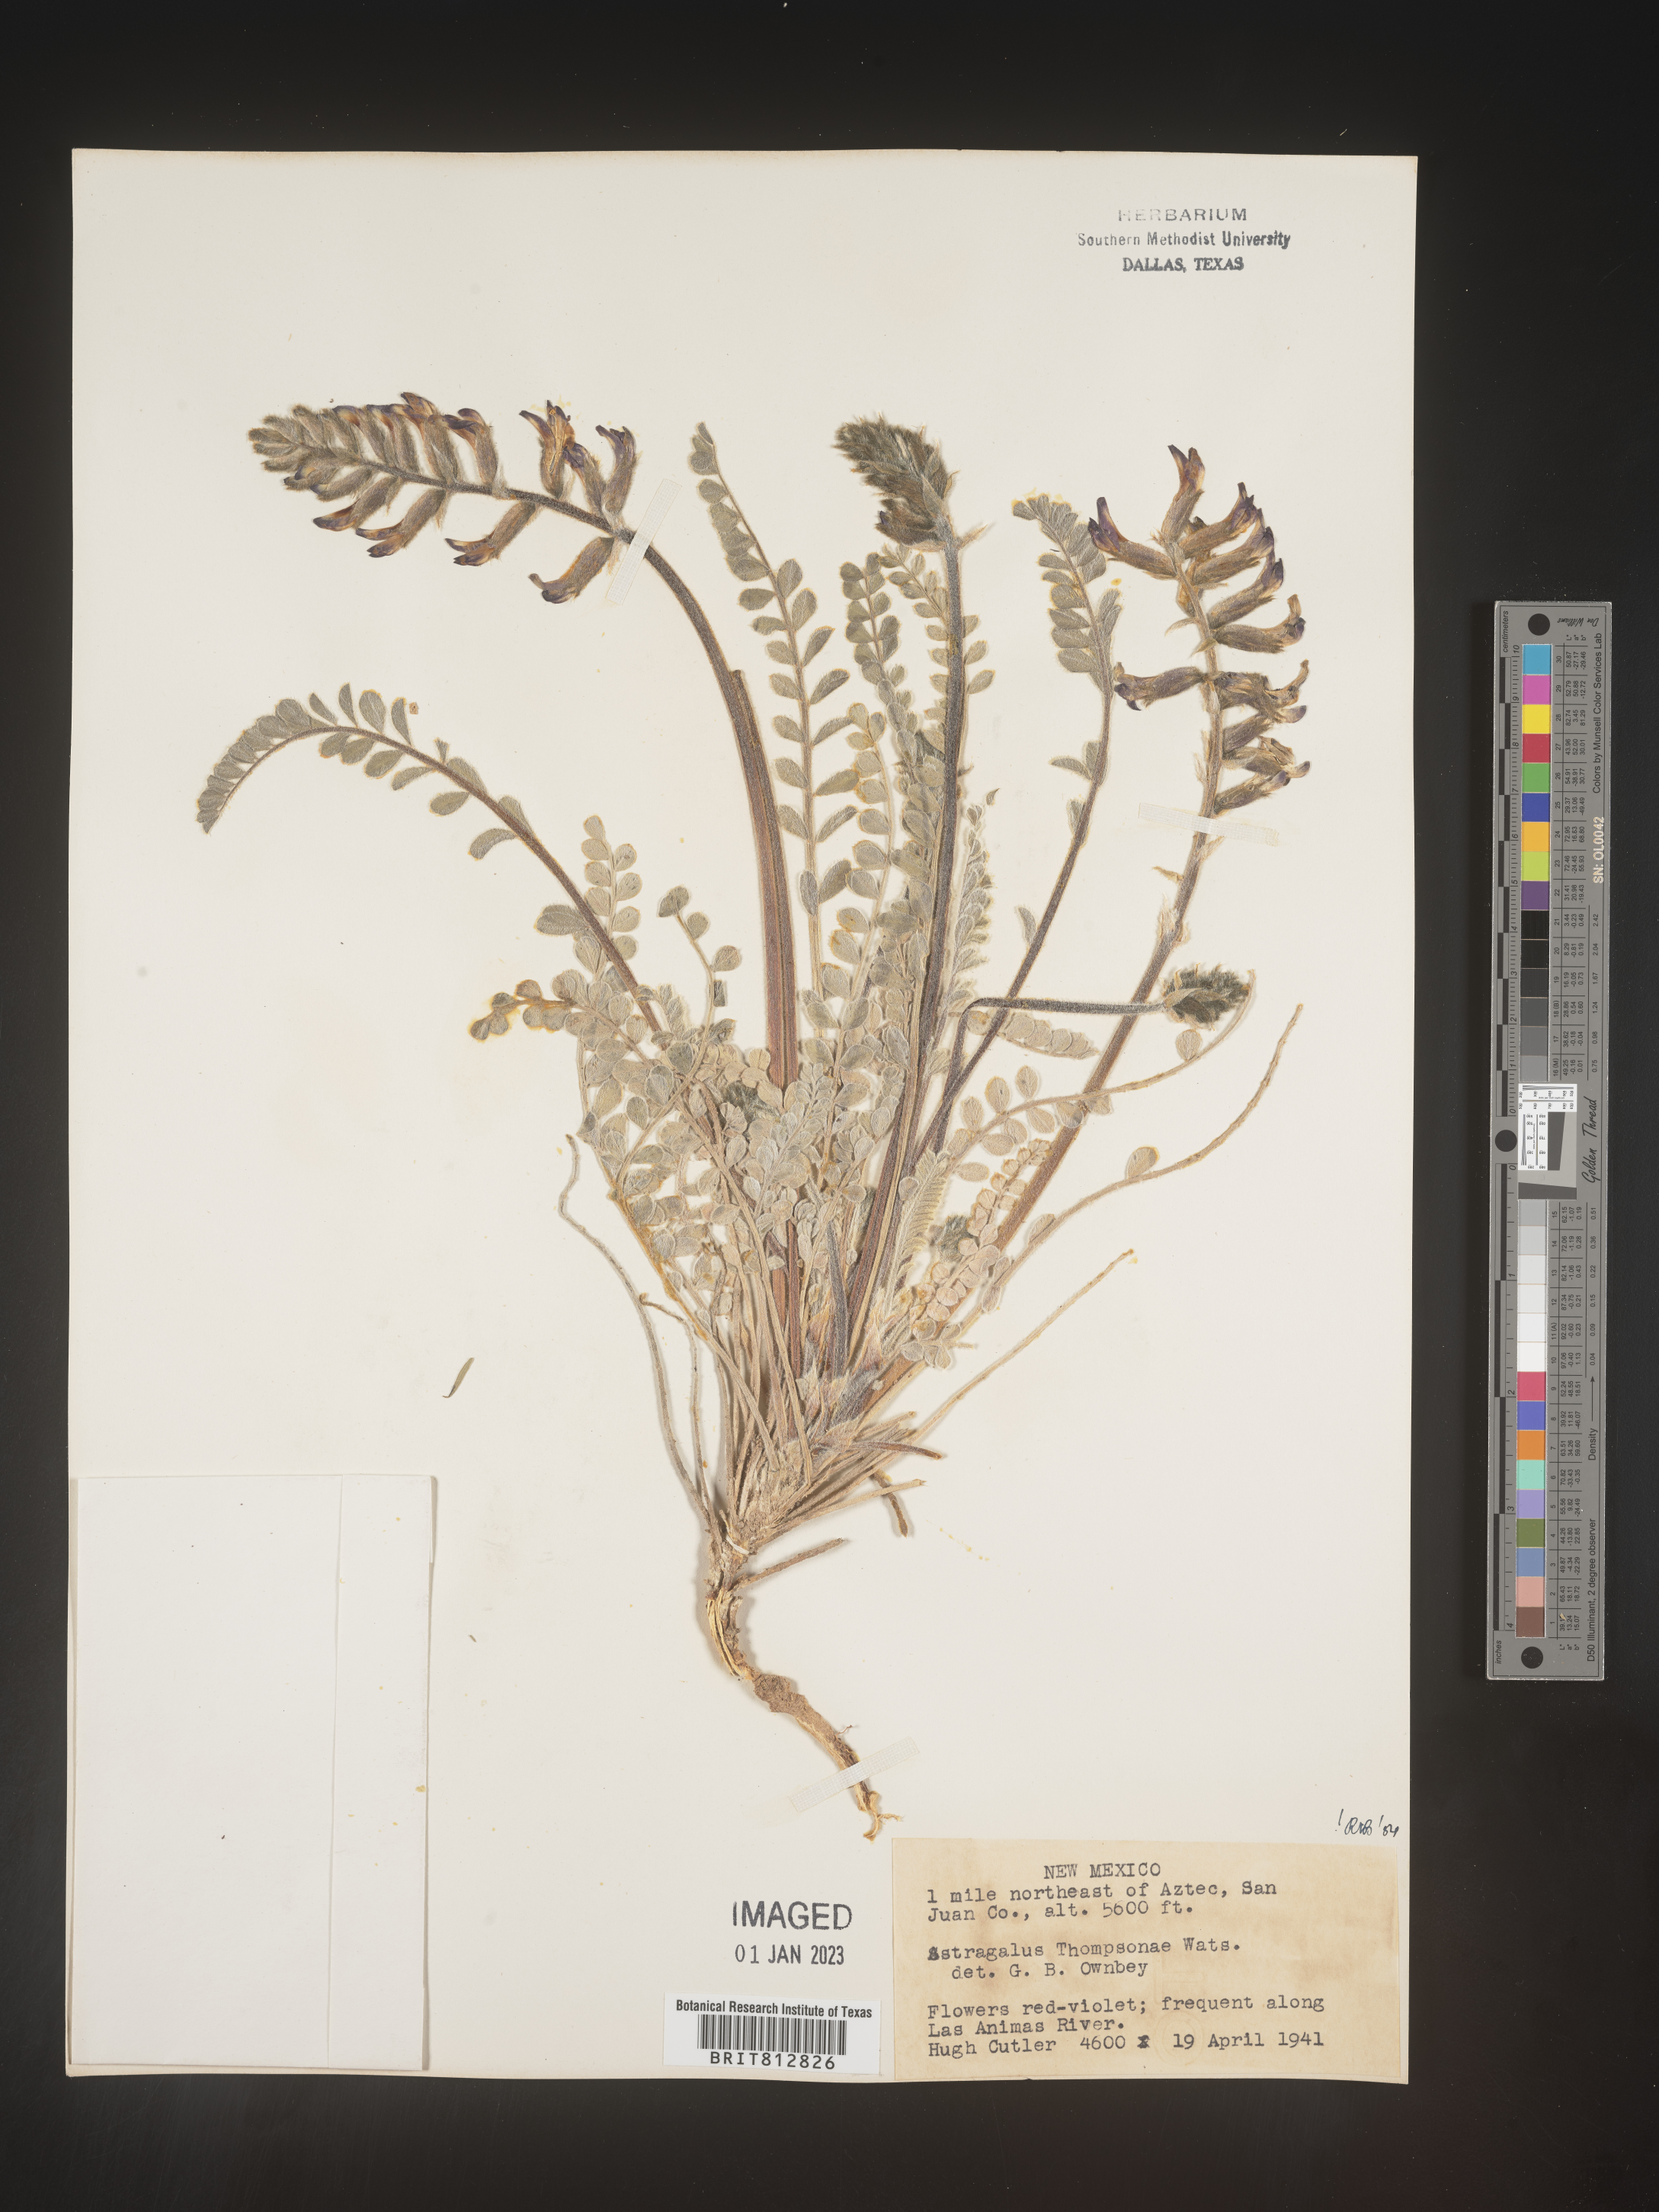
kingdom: Plantae
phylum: Tracheophyta
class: Magnoliopsida
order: Fabales
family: Fabaceae
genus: Astragalus
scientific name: Astragalus
